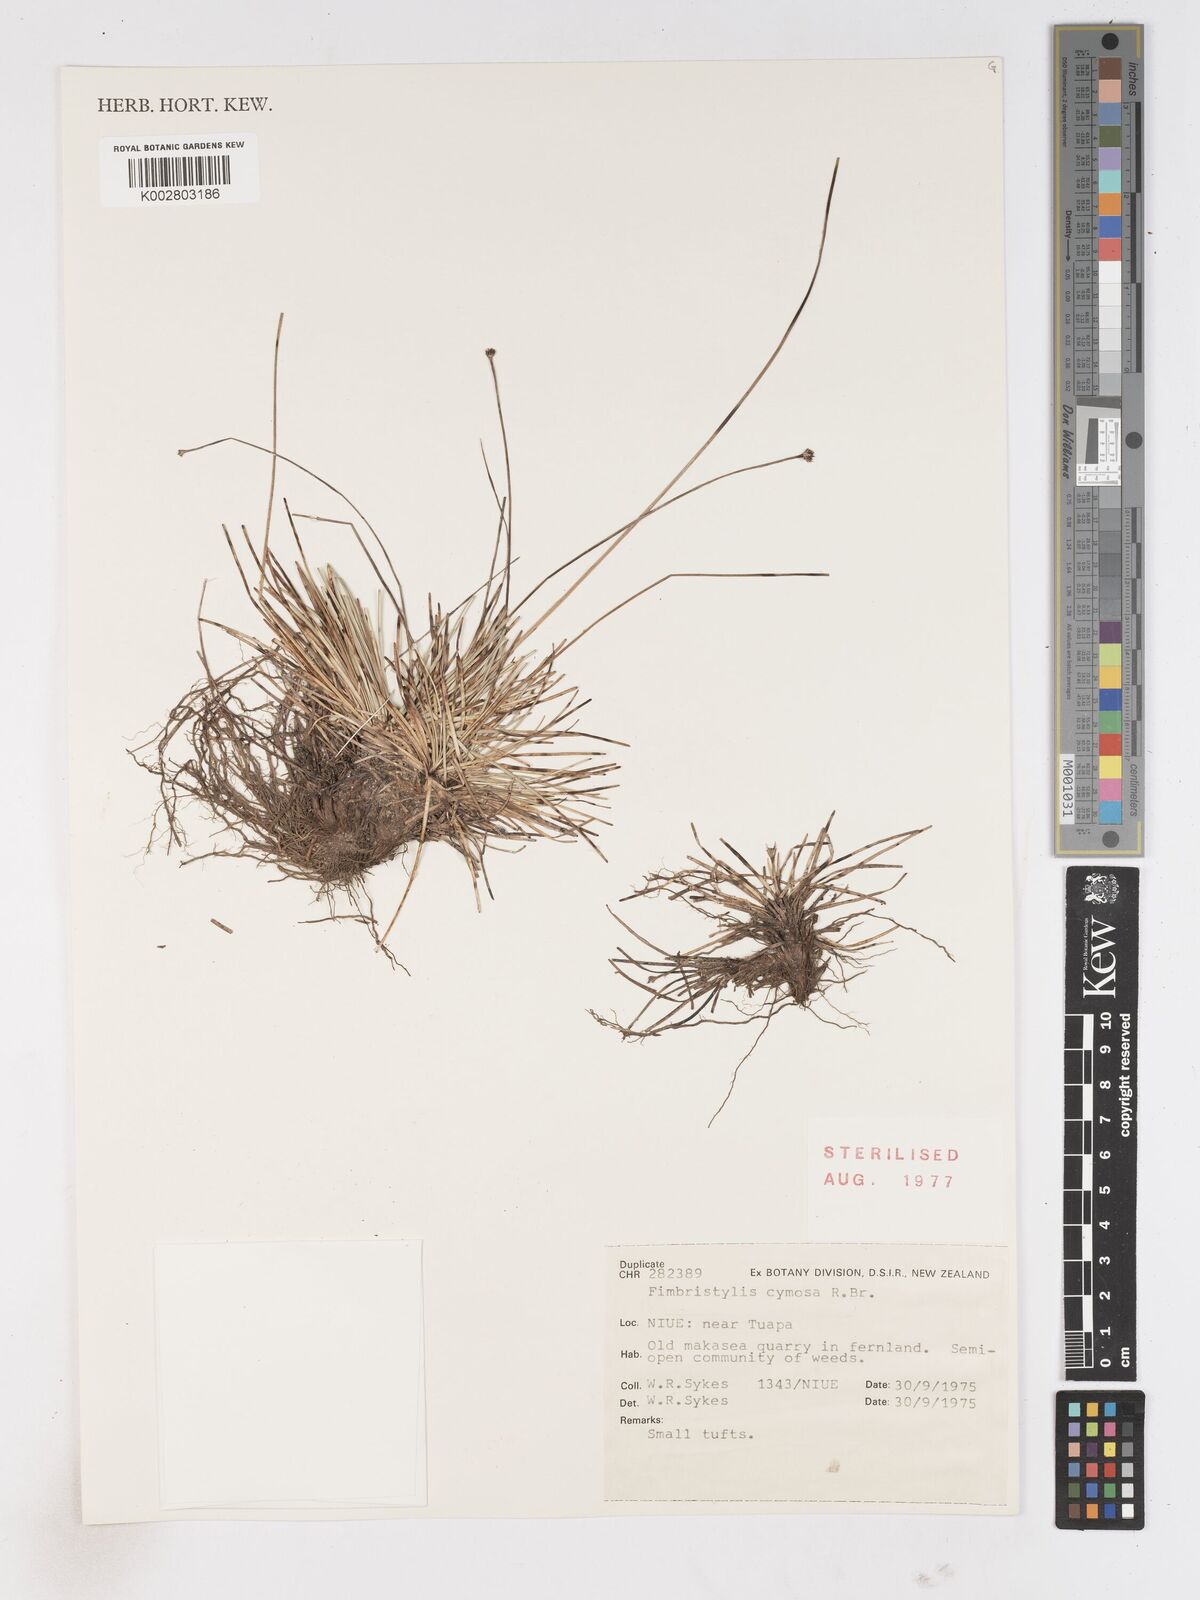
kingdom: Plantae
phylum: Tracheophyta
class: Liliopsida
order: Poales
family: Cyperaceae
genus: Fimbristylis
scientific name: Fimbristylis cymosa
